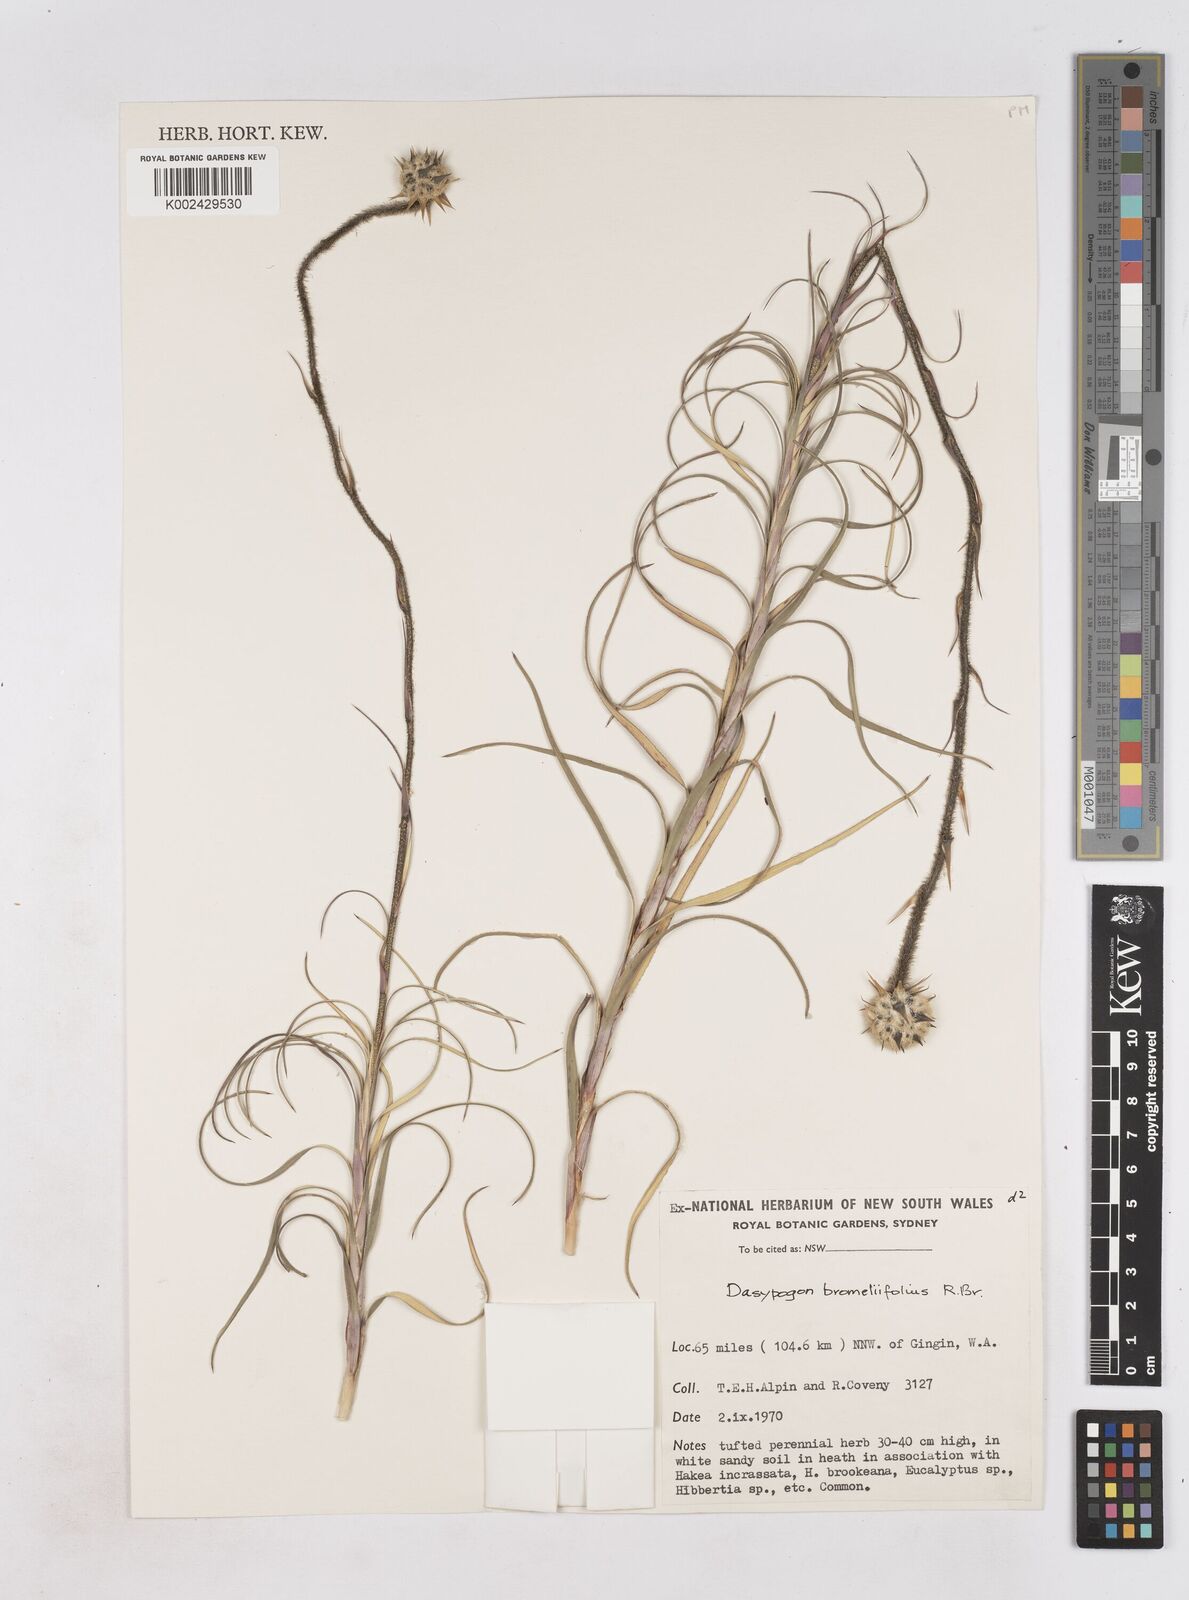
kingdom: Plantae
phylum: Tracheophyta
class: Liliopsida
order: Arecales
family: Dasypogonaceae
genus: Dasypogon
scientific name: Dasypogon bromeliifolius
